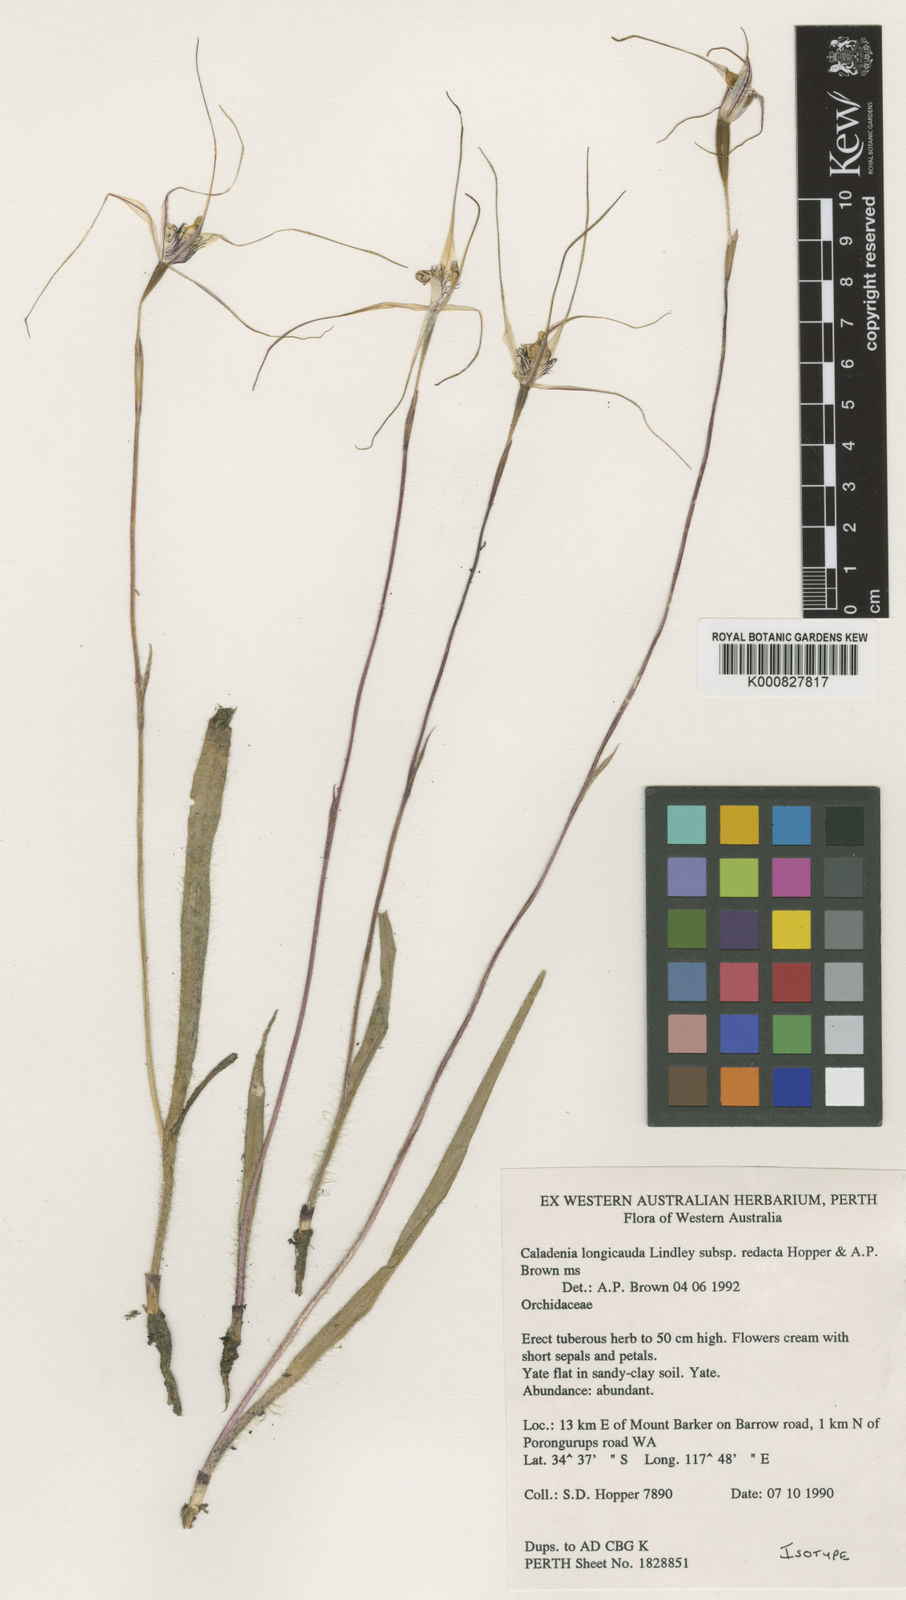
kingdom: Plantae
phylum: Tracheophyta
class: Liliopsida
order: Asparagales
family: Orchidaceae
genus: Caladenia
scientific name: Caladenia longicauda
